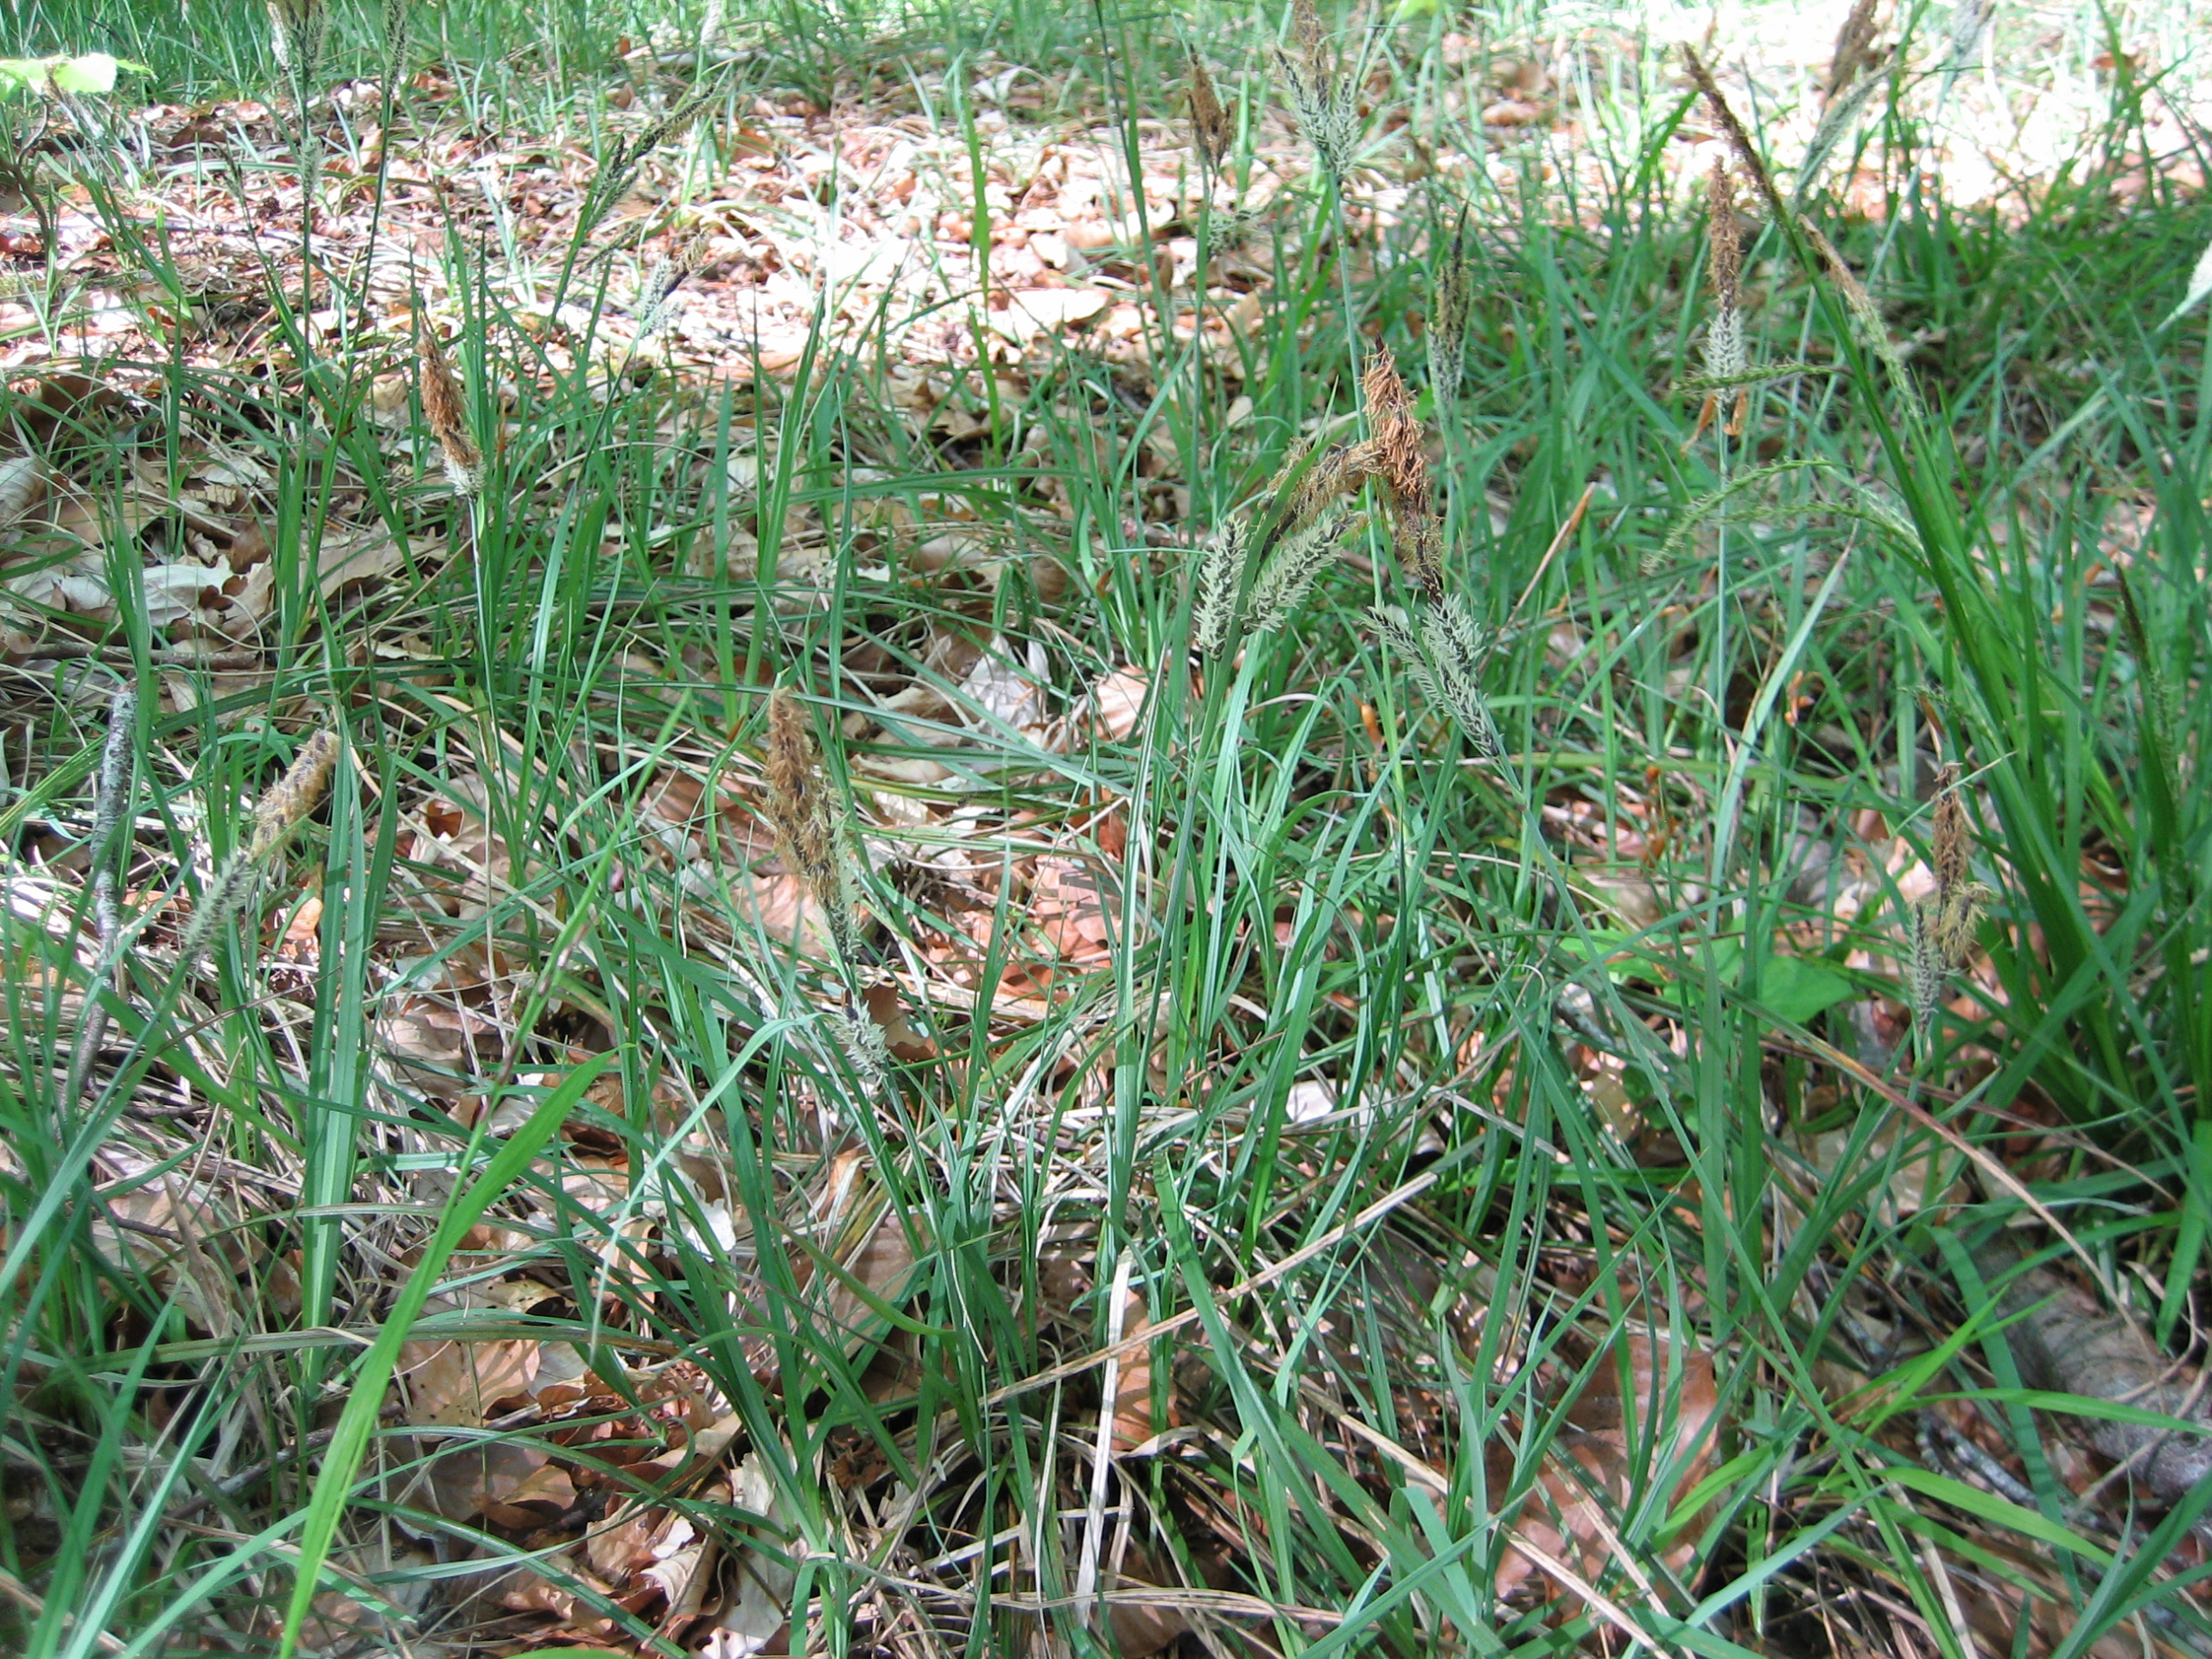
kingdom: Plantae
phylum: Tracheophyta
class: Liliopsida
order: Poales
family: Cyperaceae
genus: Carex
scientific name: Carex flacca
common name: Blågrøn star
